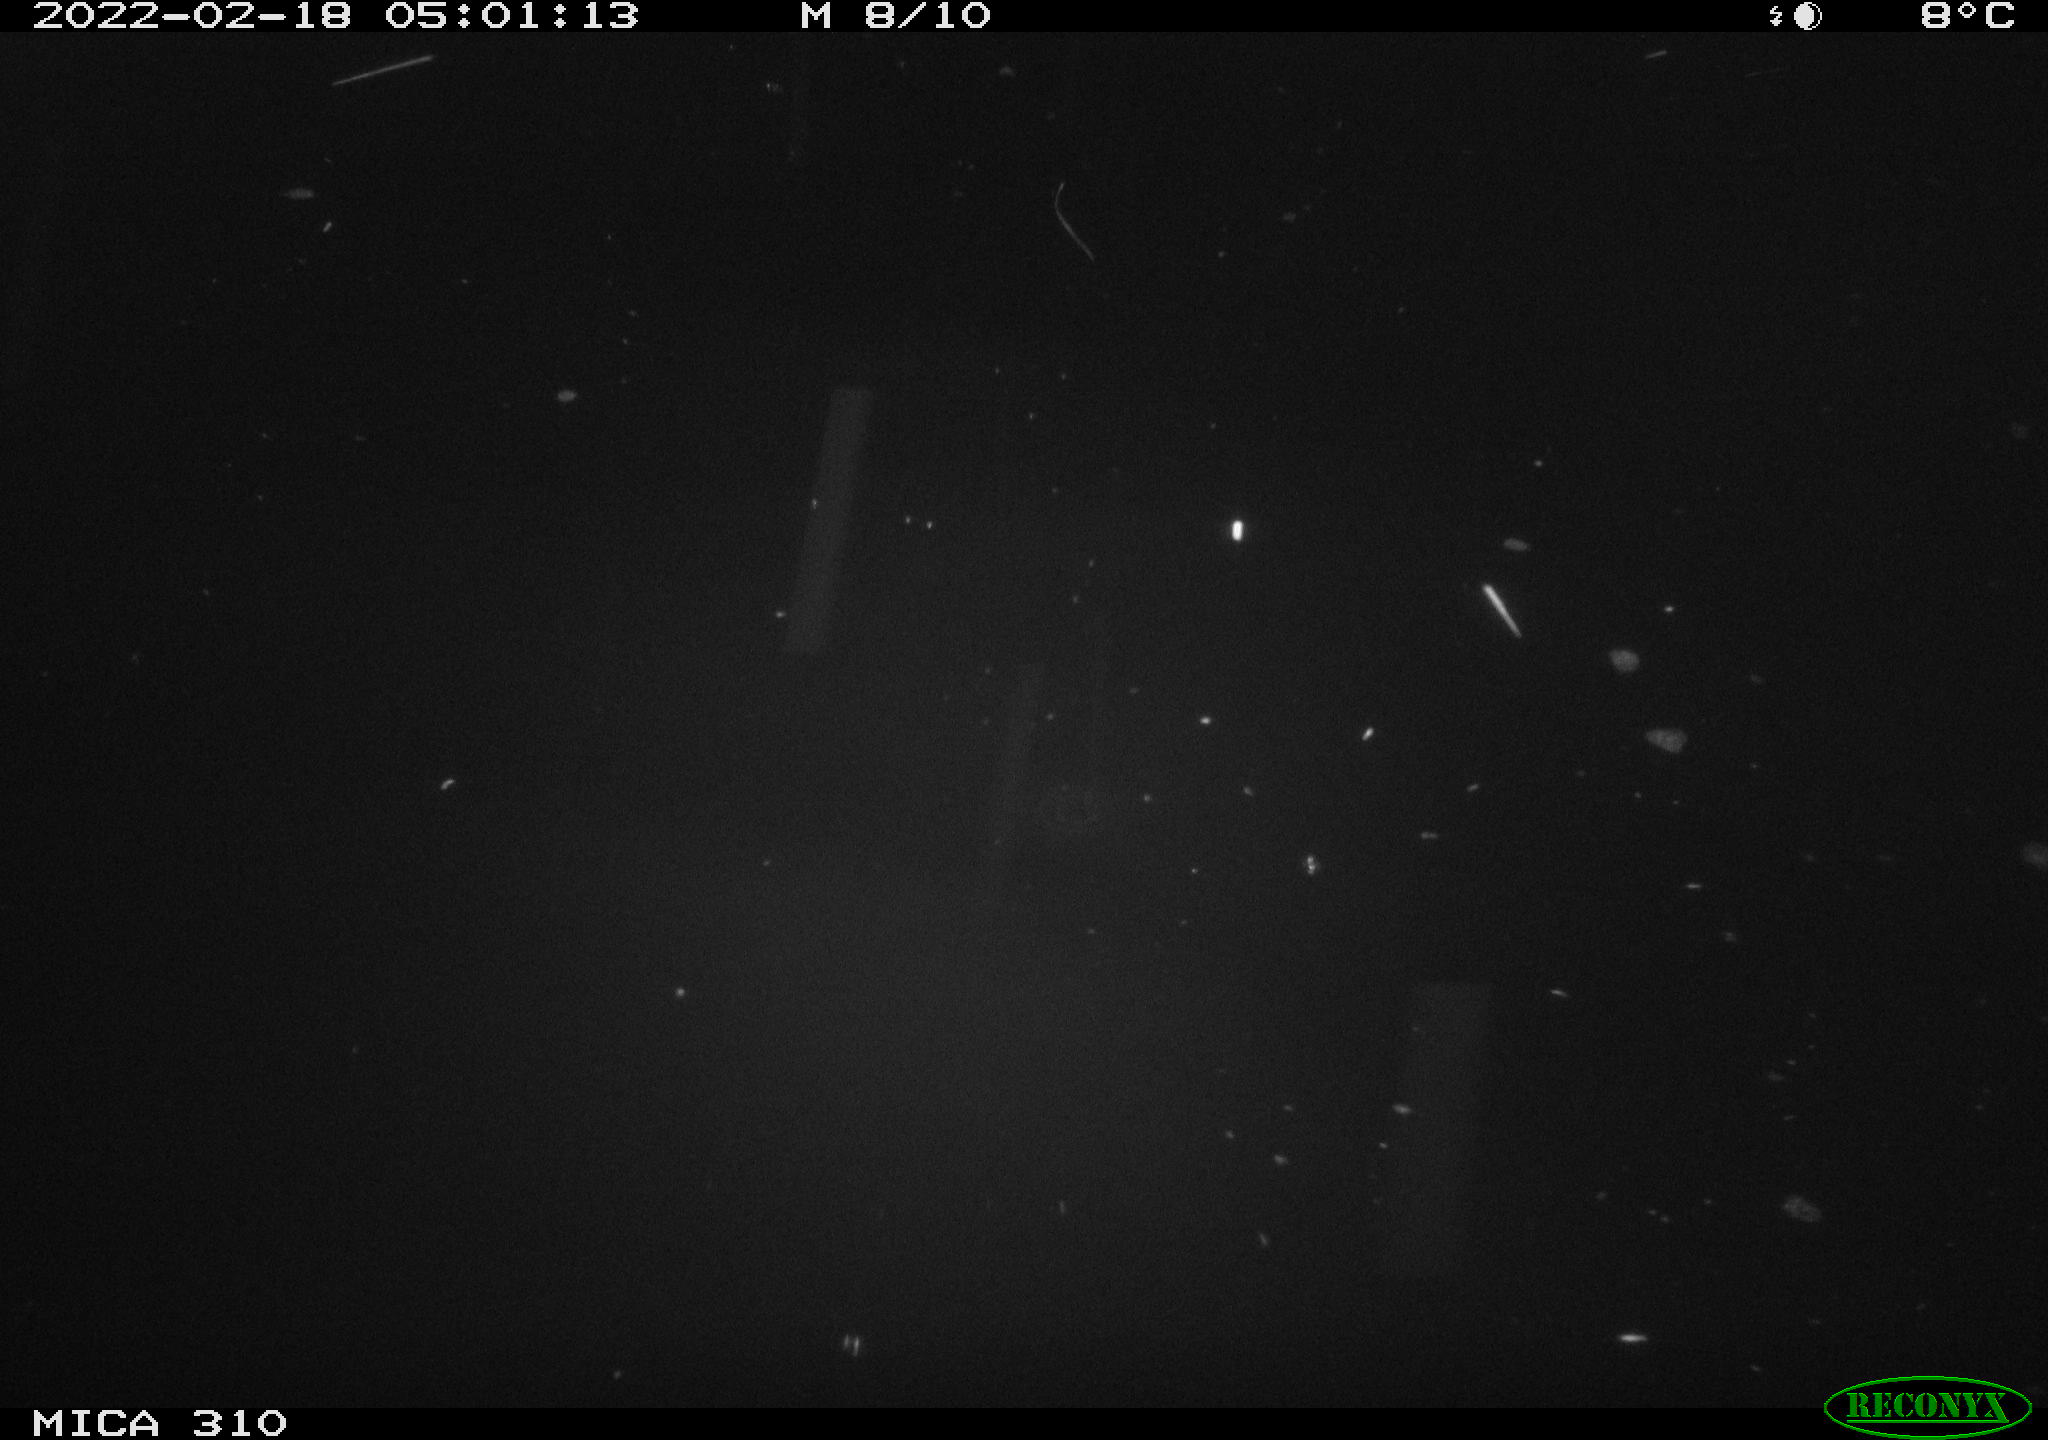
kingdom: Animalia
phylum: Chordata
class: Mammalia
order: Rodentia
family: Cricetidae
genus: Ondatra
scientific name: Ondatra zibethicus
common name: Muskrat
